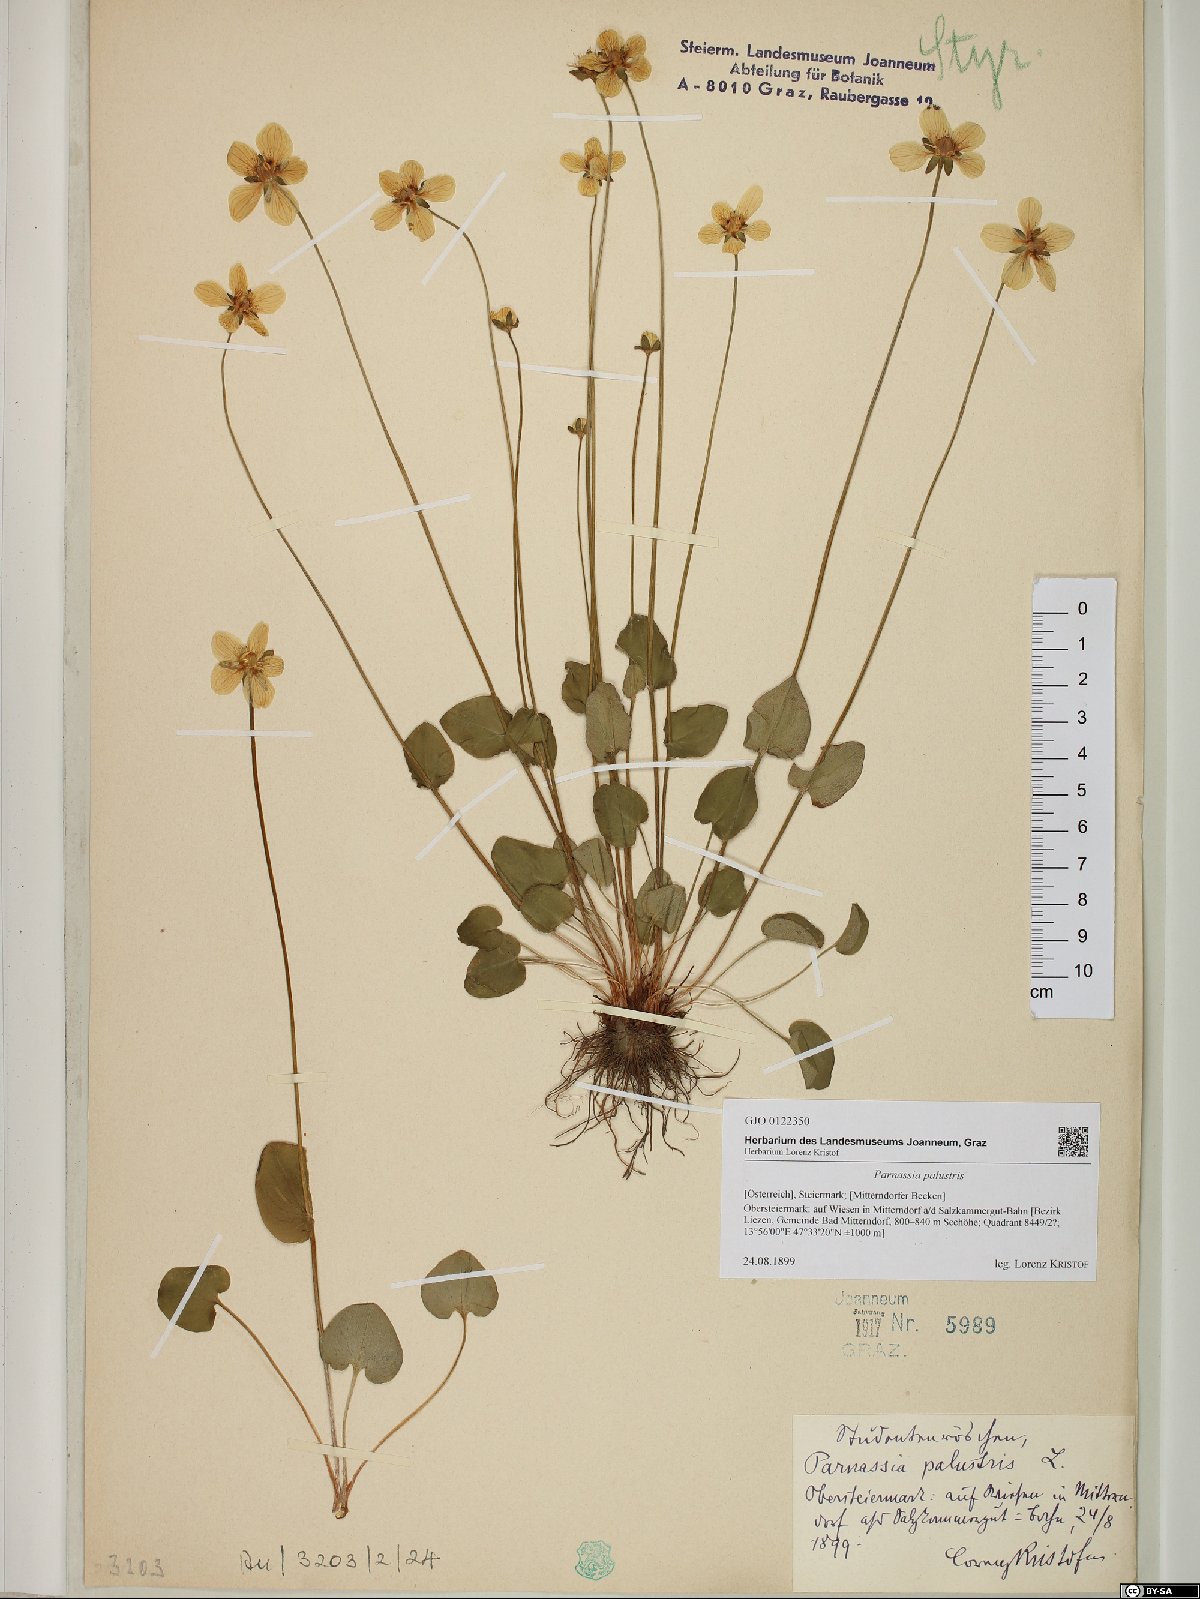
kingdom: Plantae
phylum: Tracheophyta
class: Magnoliopsida
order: Celastrales
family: Parnassiaceae
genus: Parnassia
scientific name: Parnassia palustris
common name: Grass-of-parnassus
